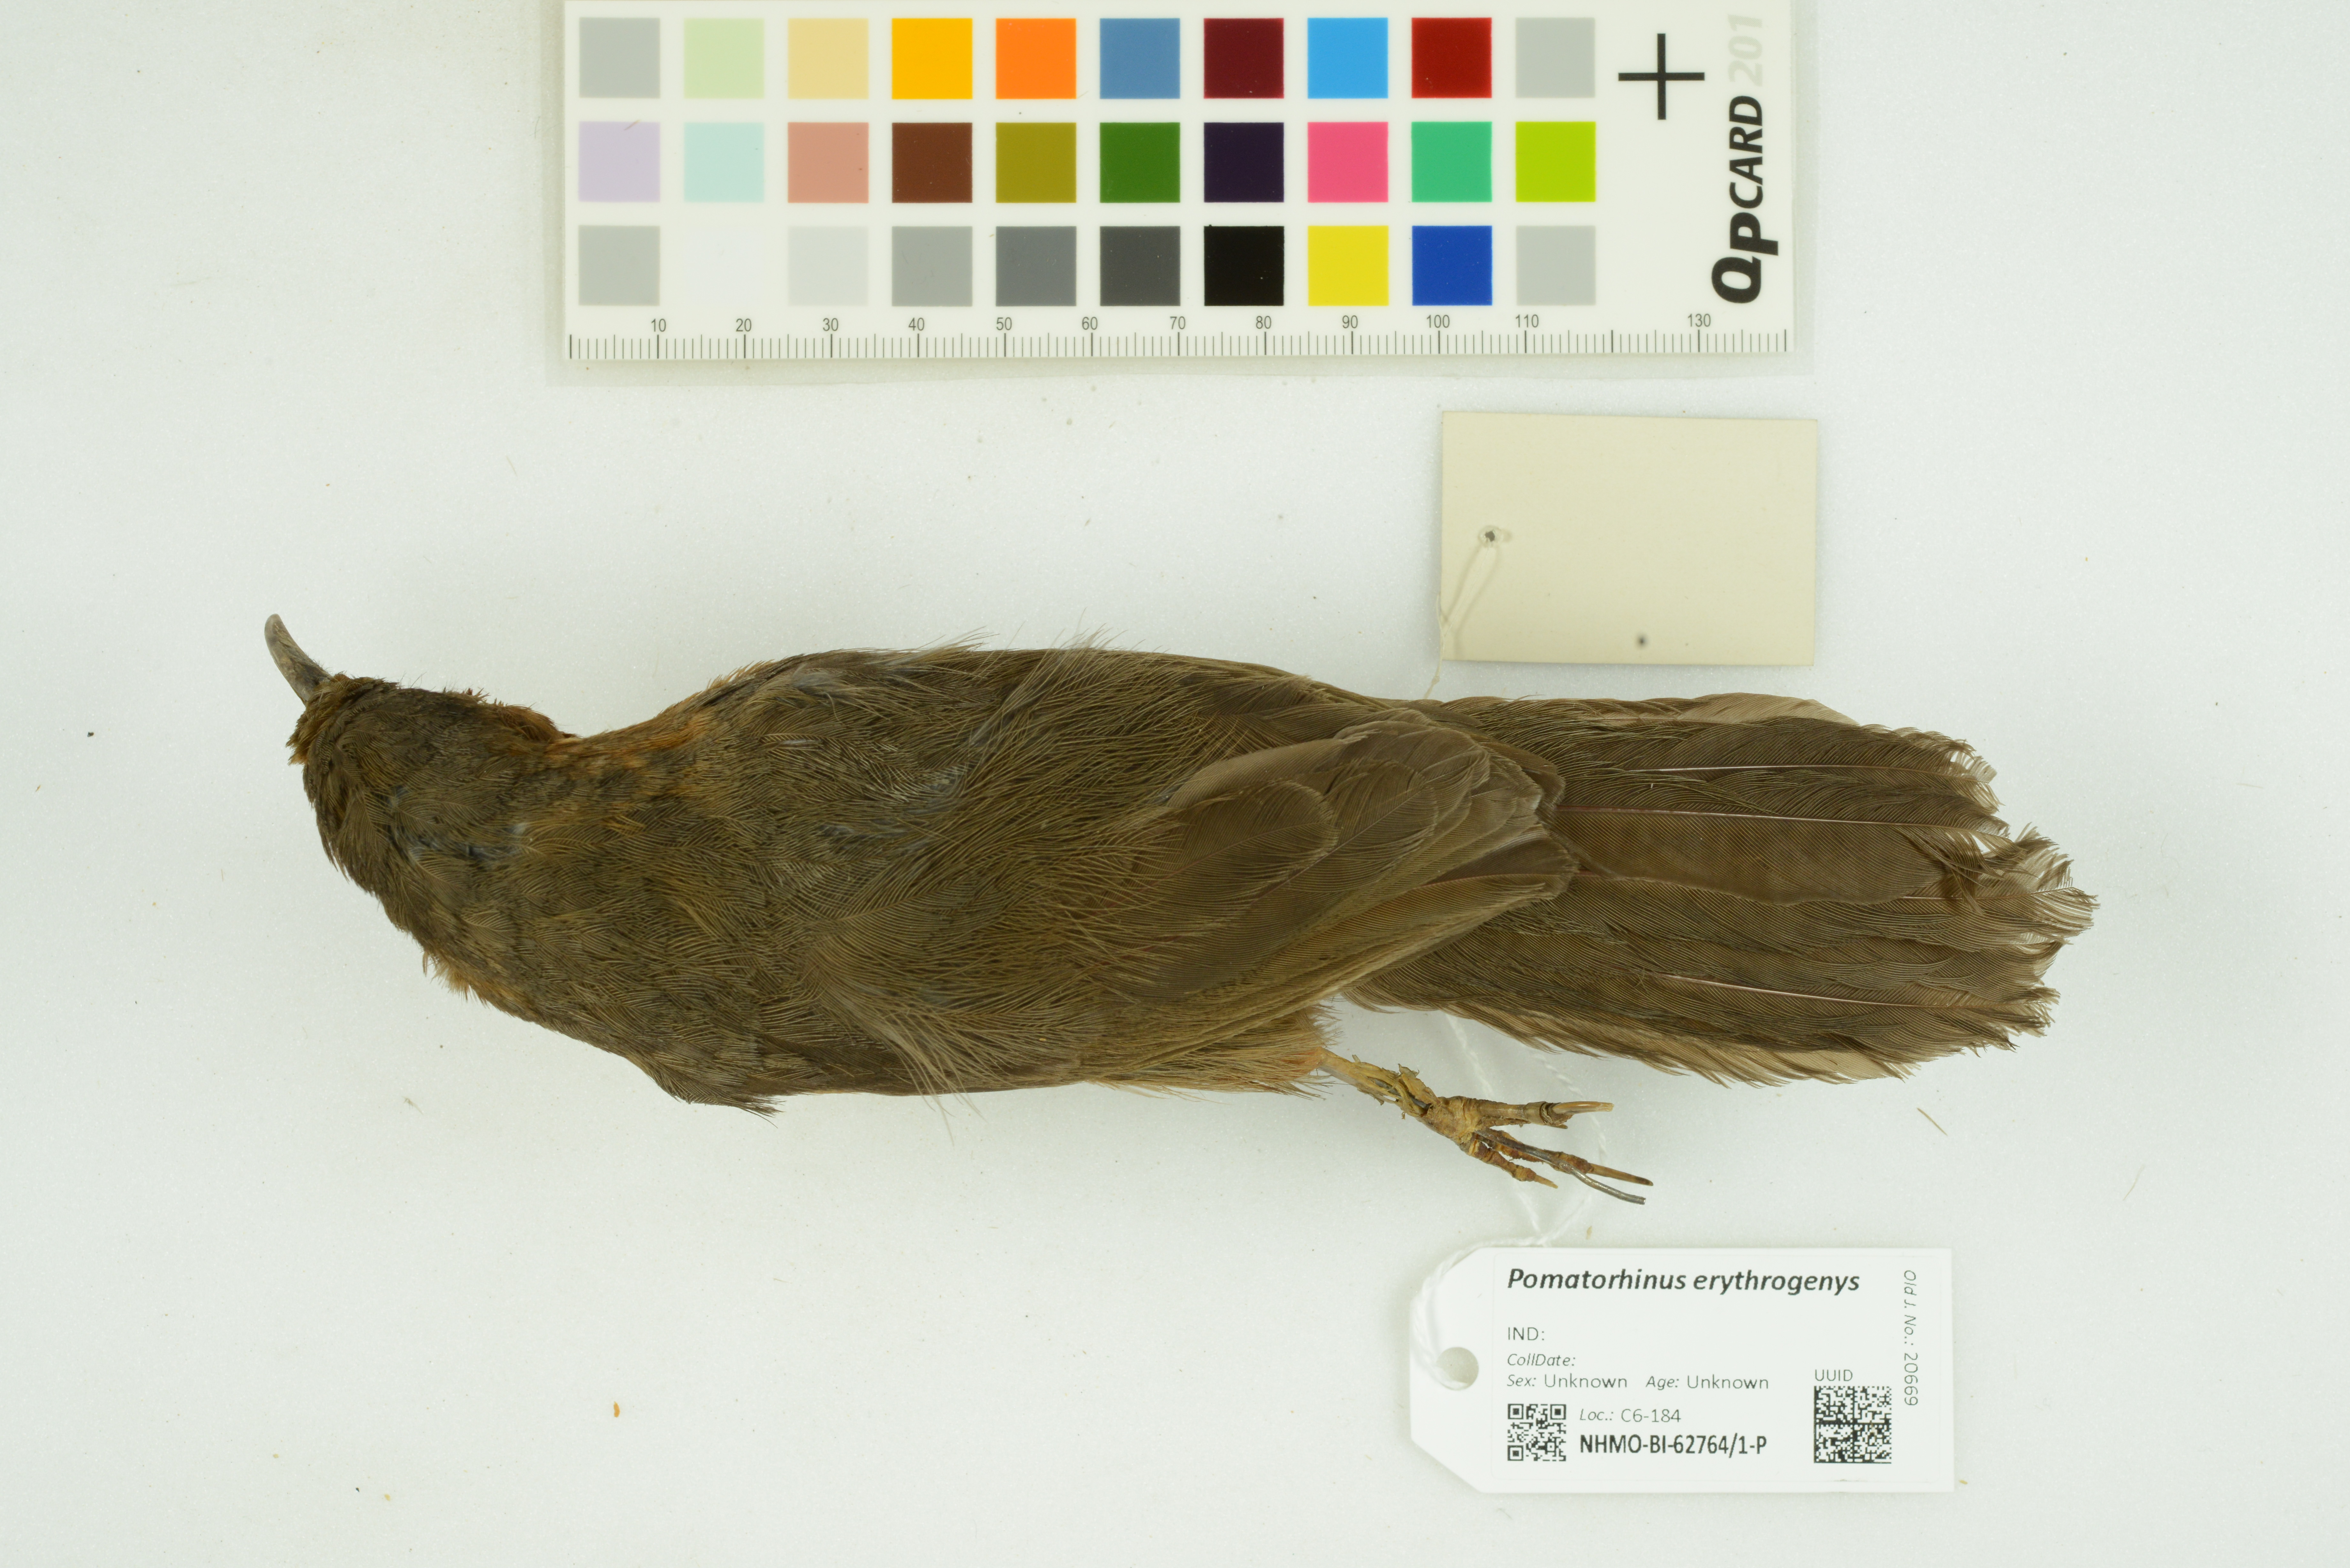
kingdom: Animalia
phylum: Chordata
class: Aves
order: Passeriformes
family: Timaliidae
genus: Pomatorhinus
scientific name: Pomatorhinus erythrogenys
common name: Rusty-cheeked scimitar babbler
